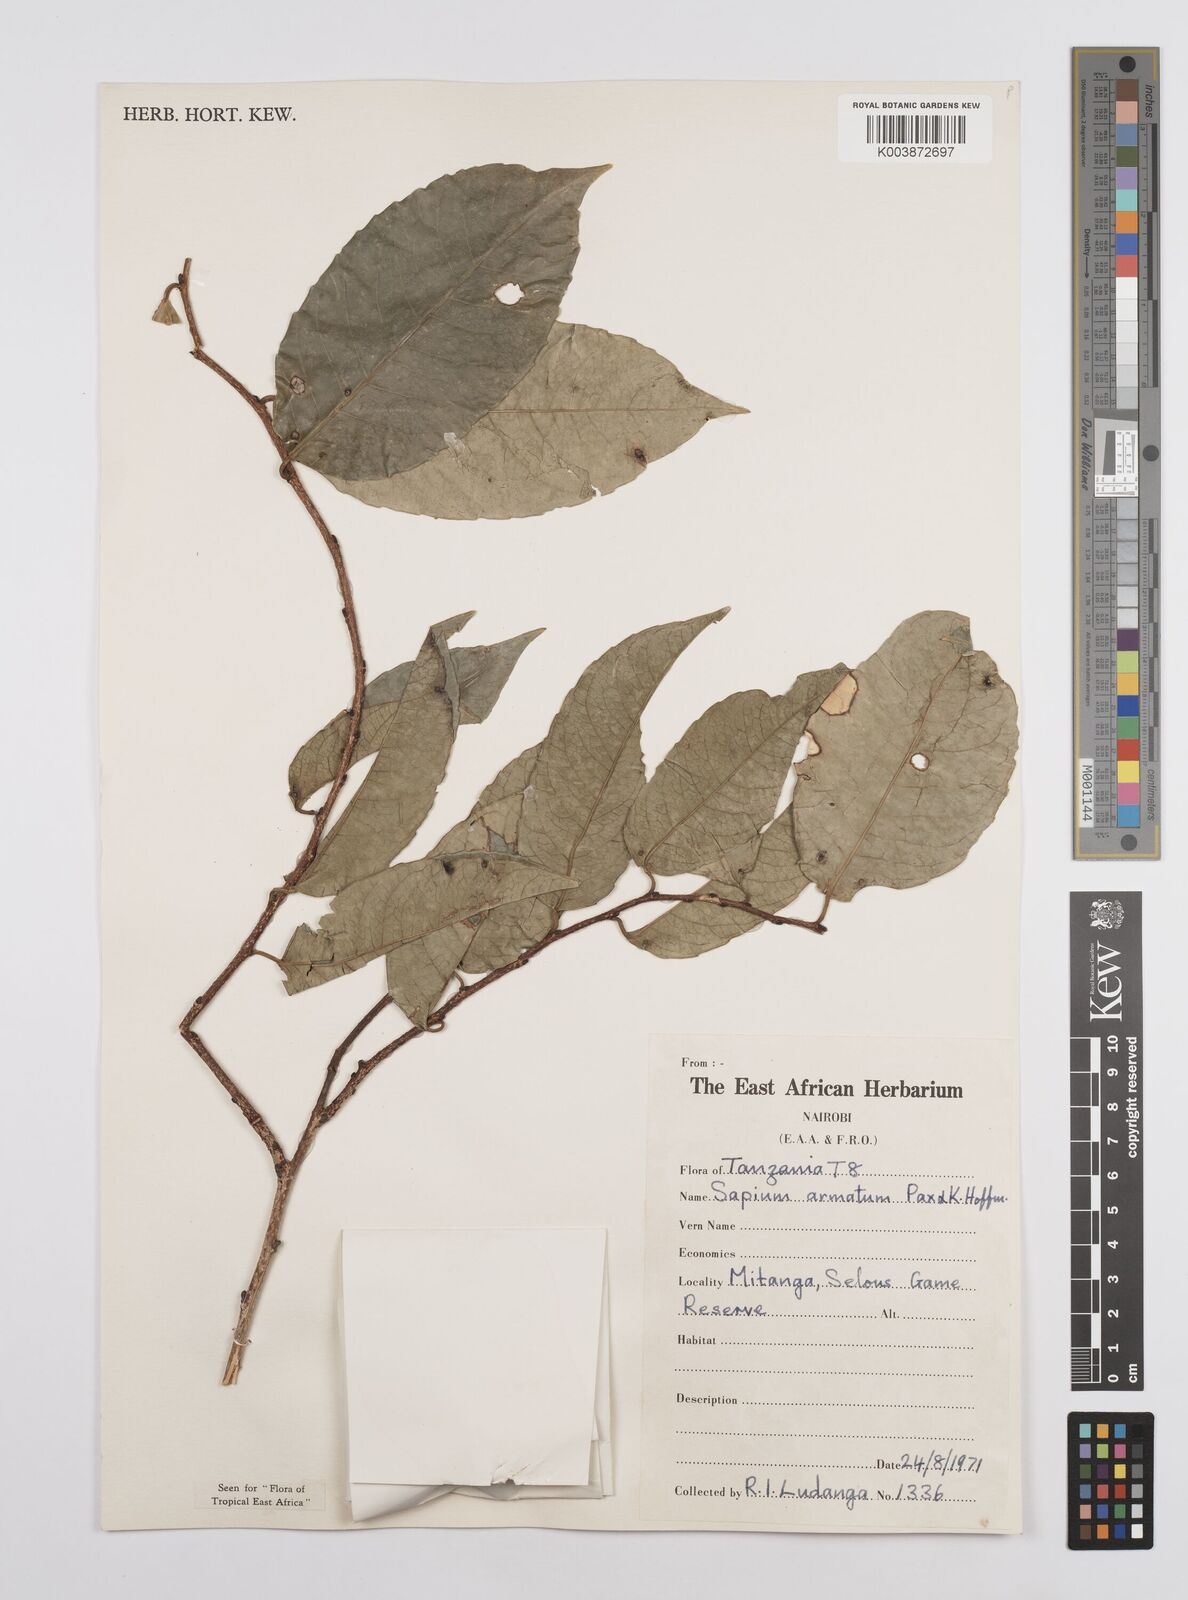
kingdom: Plantae
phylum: Tracheophyta
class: Magnoliopsida
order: Malpighiales
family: Euphorbiaceae
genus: Sclerocroton
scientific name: Sclerocroton integerrimus
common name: Duiker berry
